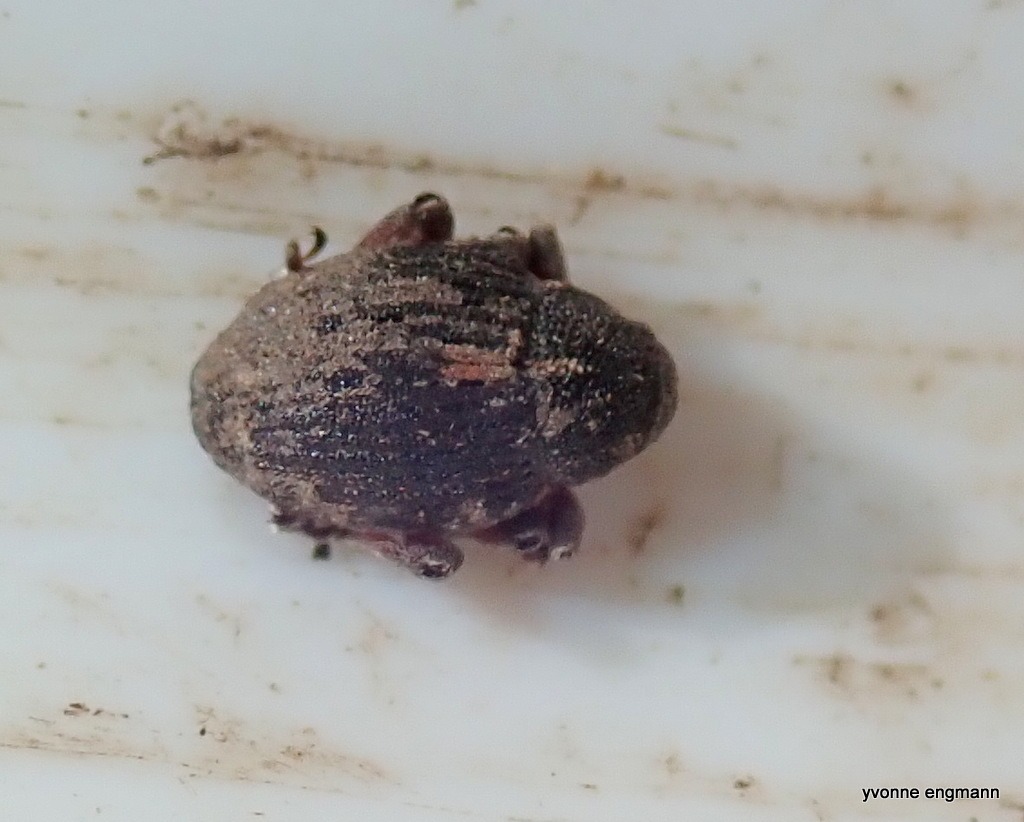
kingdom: Animalia
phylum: Arthropoda
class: Insecta
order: Coleoptera
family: Curculionidae
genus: Rhinoncus
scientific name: Rhinoncus leucostigma
